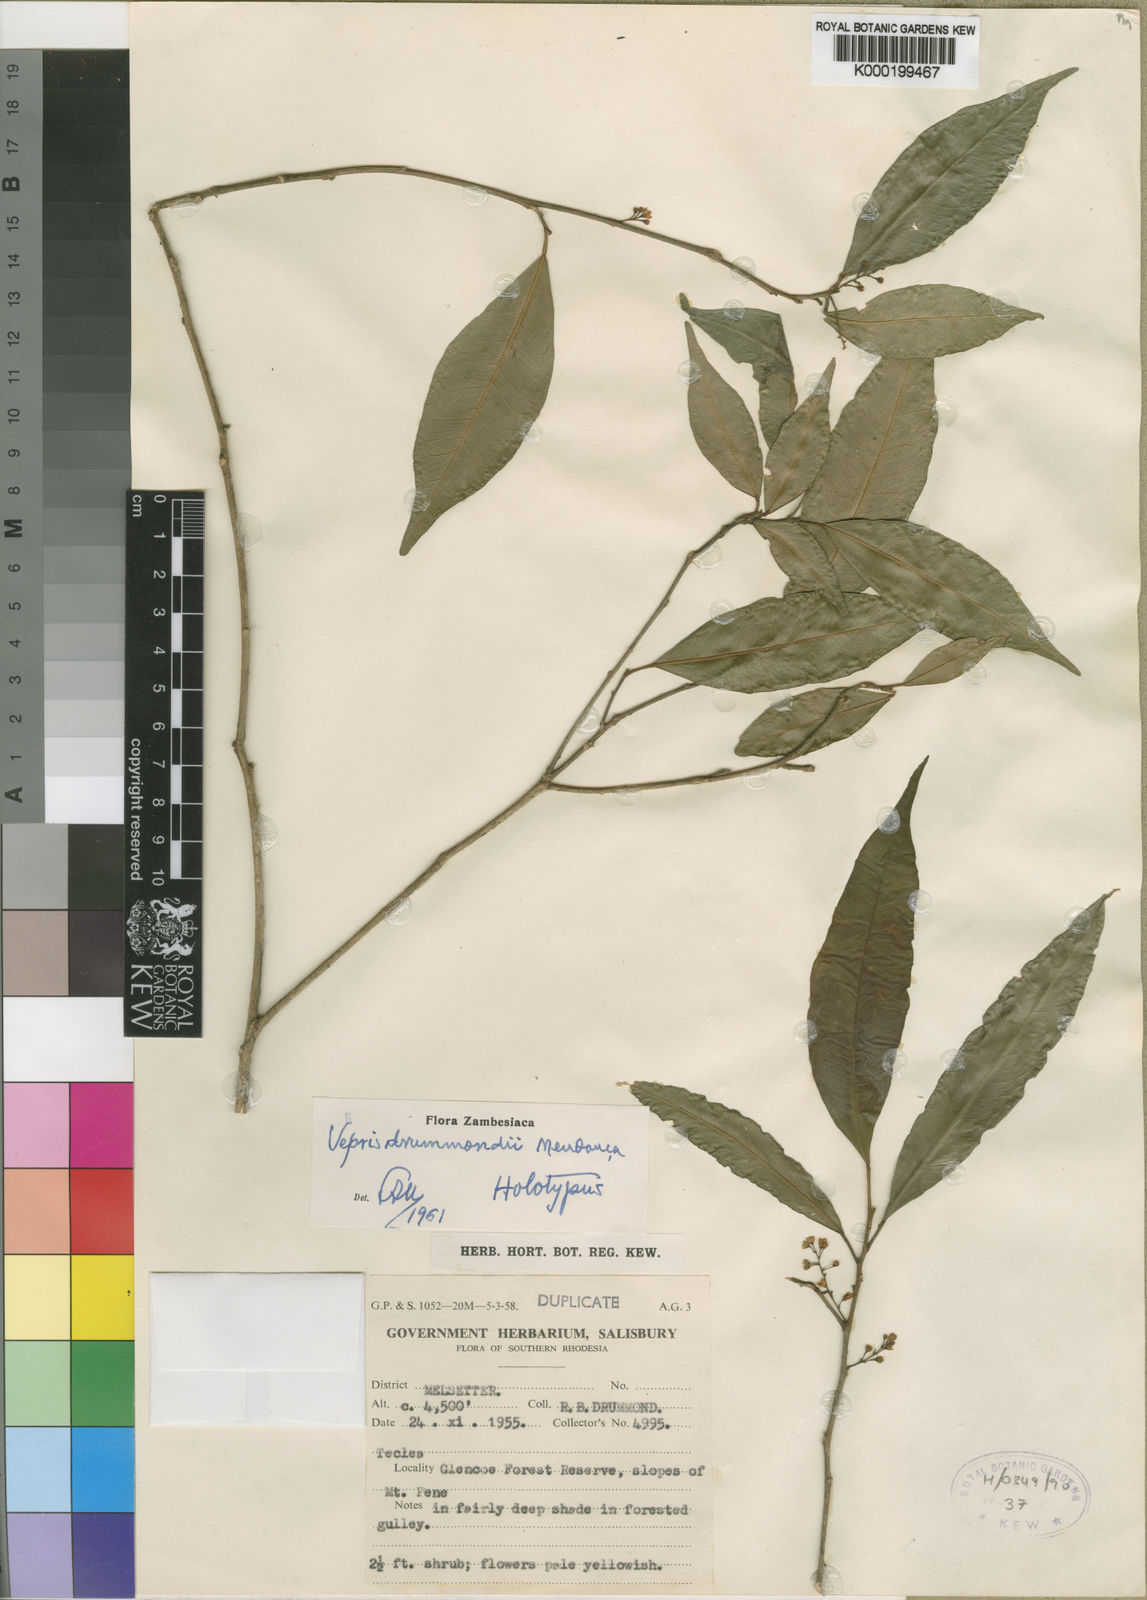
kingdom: Plantae
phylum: Tracheophyta
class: Magnoliopsida
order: Sapindales
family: Rutaceae
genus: Vepris
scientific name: Vepris drummondii
